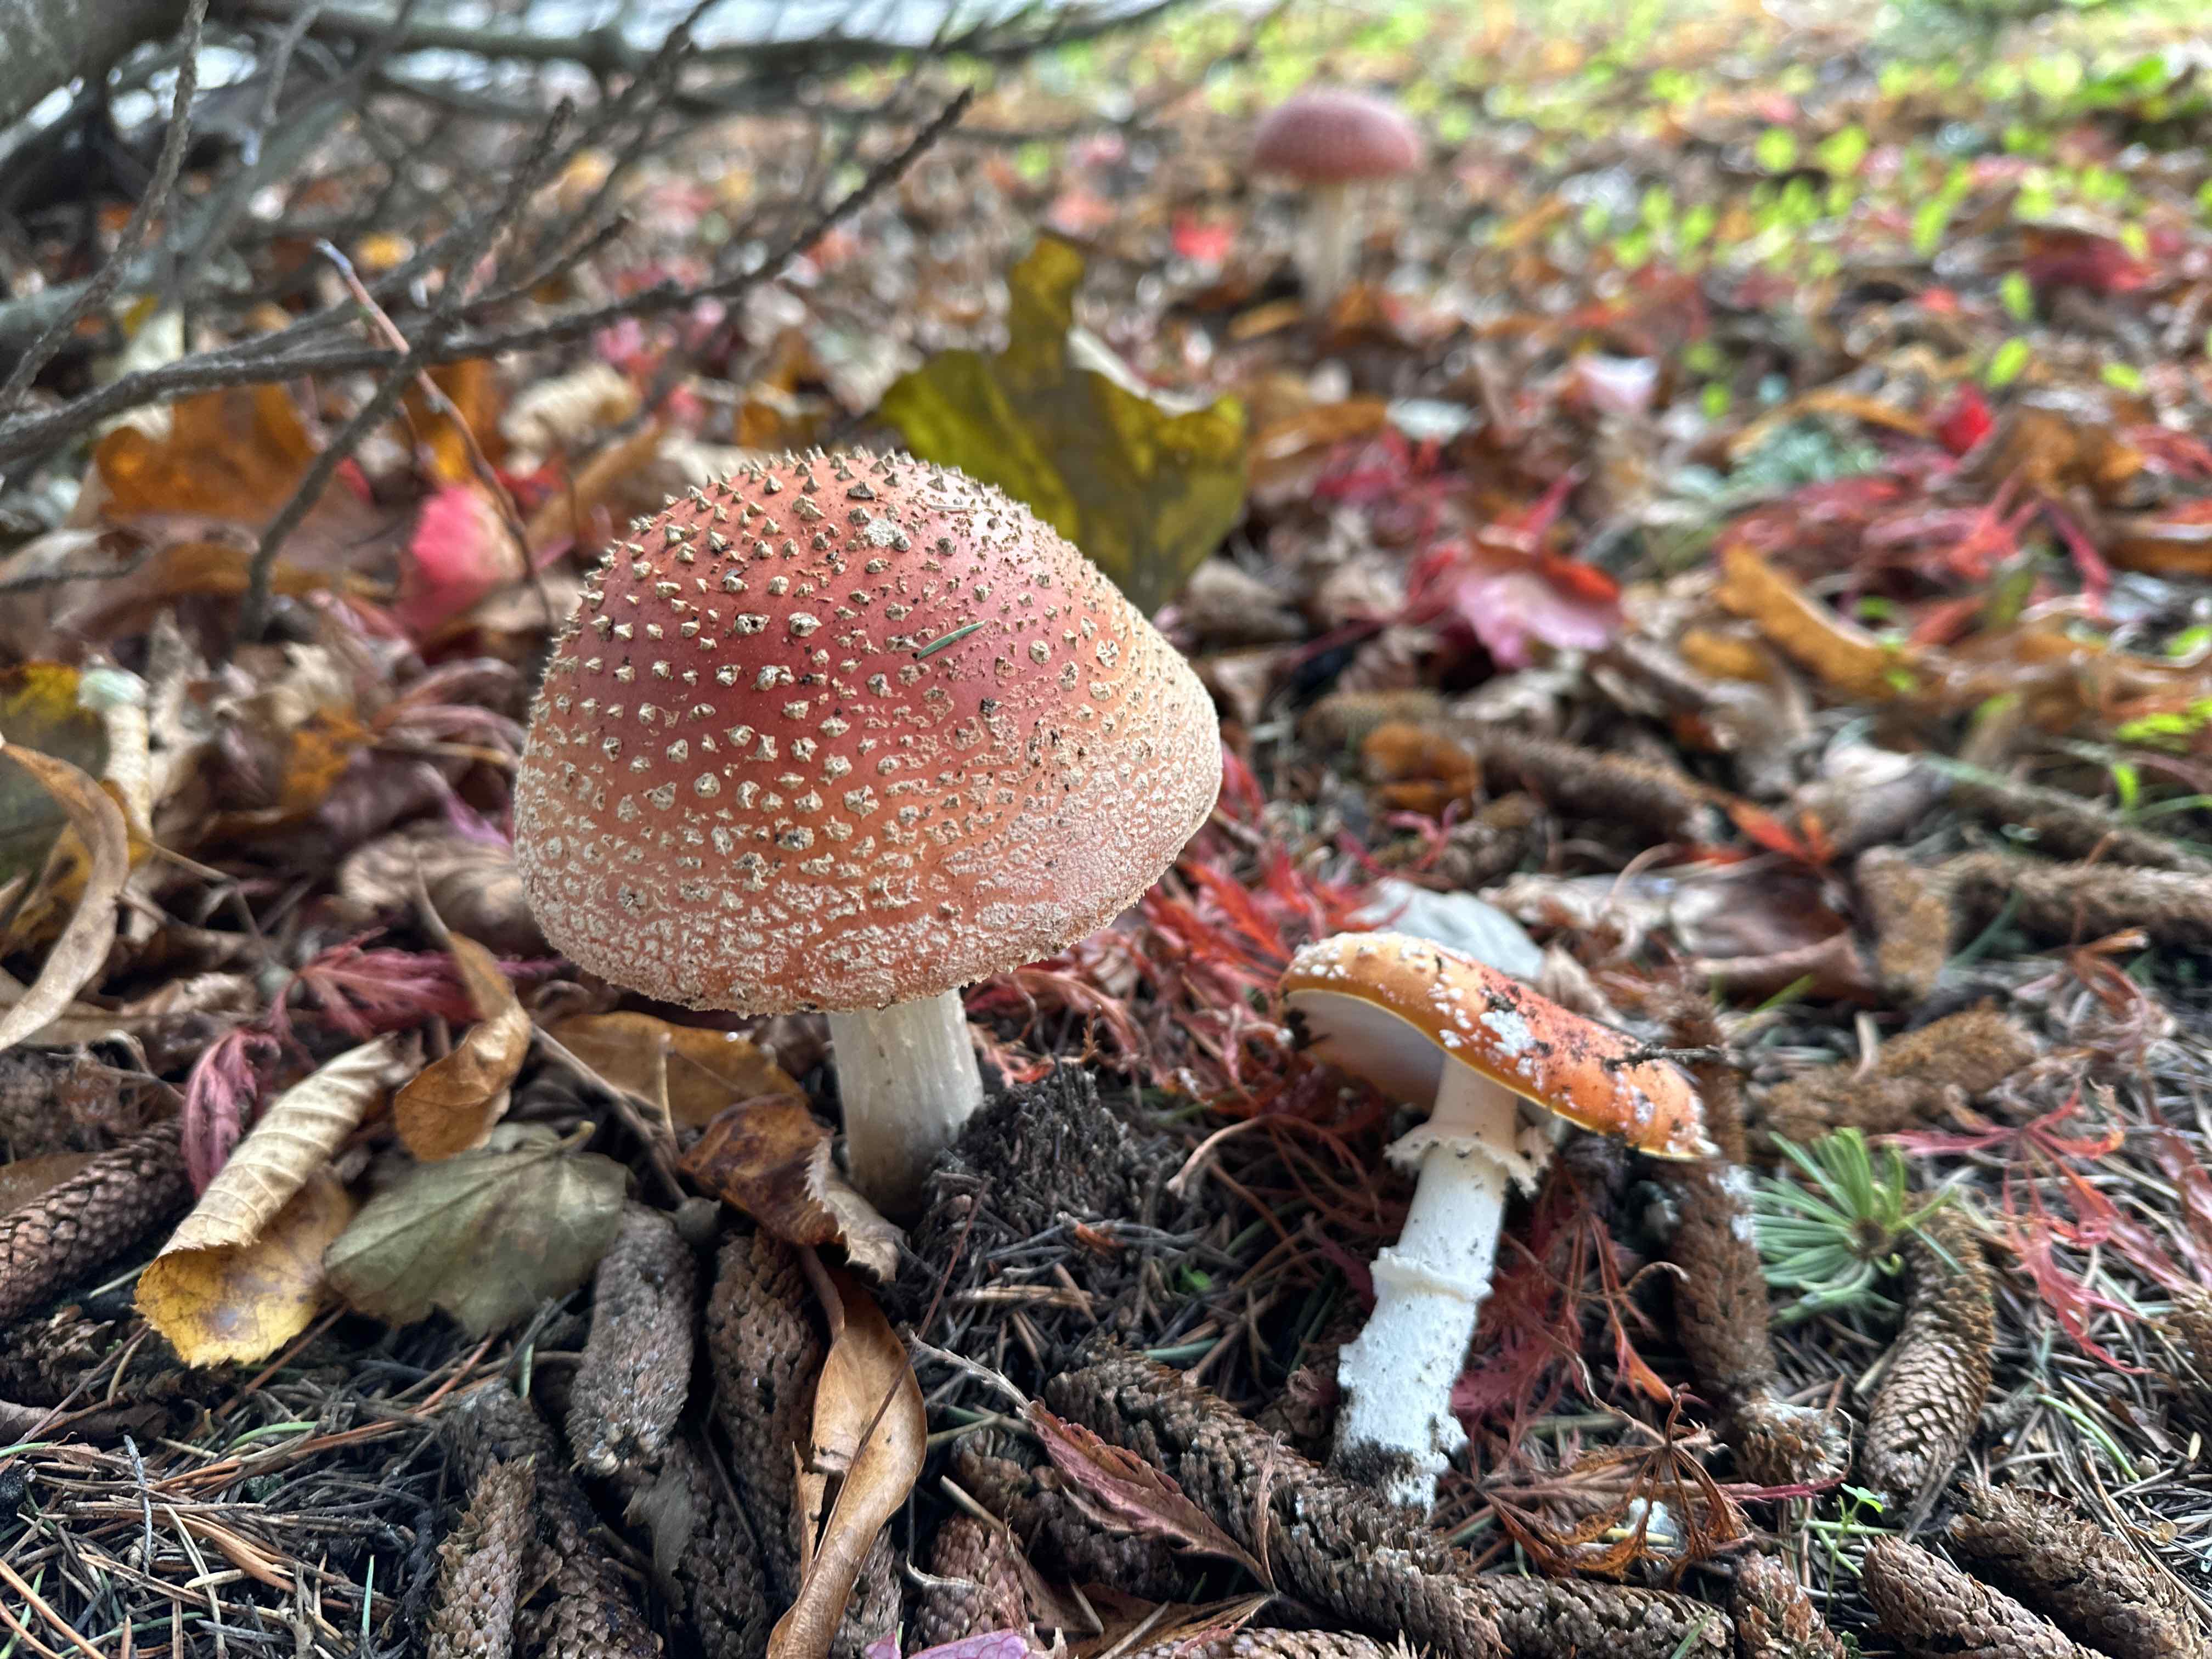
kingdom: Fungi
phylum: Basidiomycota
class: Agaricomycetes
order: Agaricales
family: Amanitaceae
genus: Amanita
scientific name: Amanita muscaria
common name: rød fluesvamp
